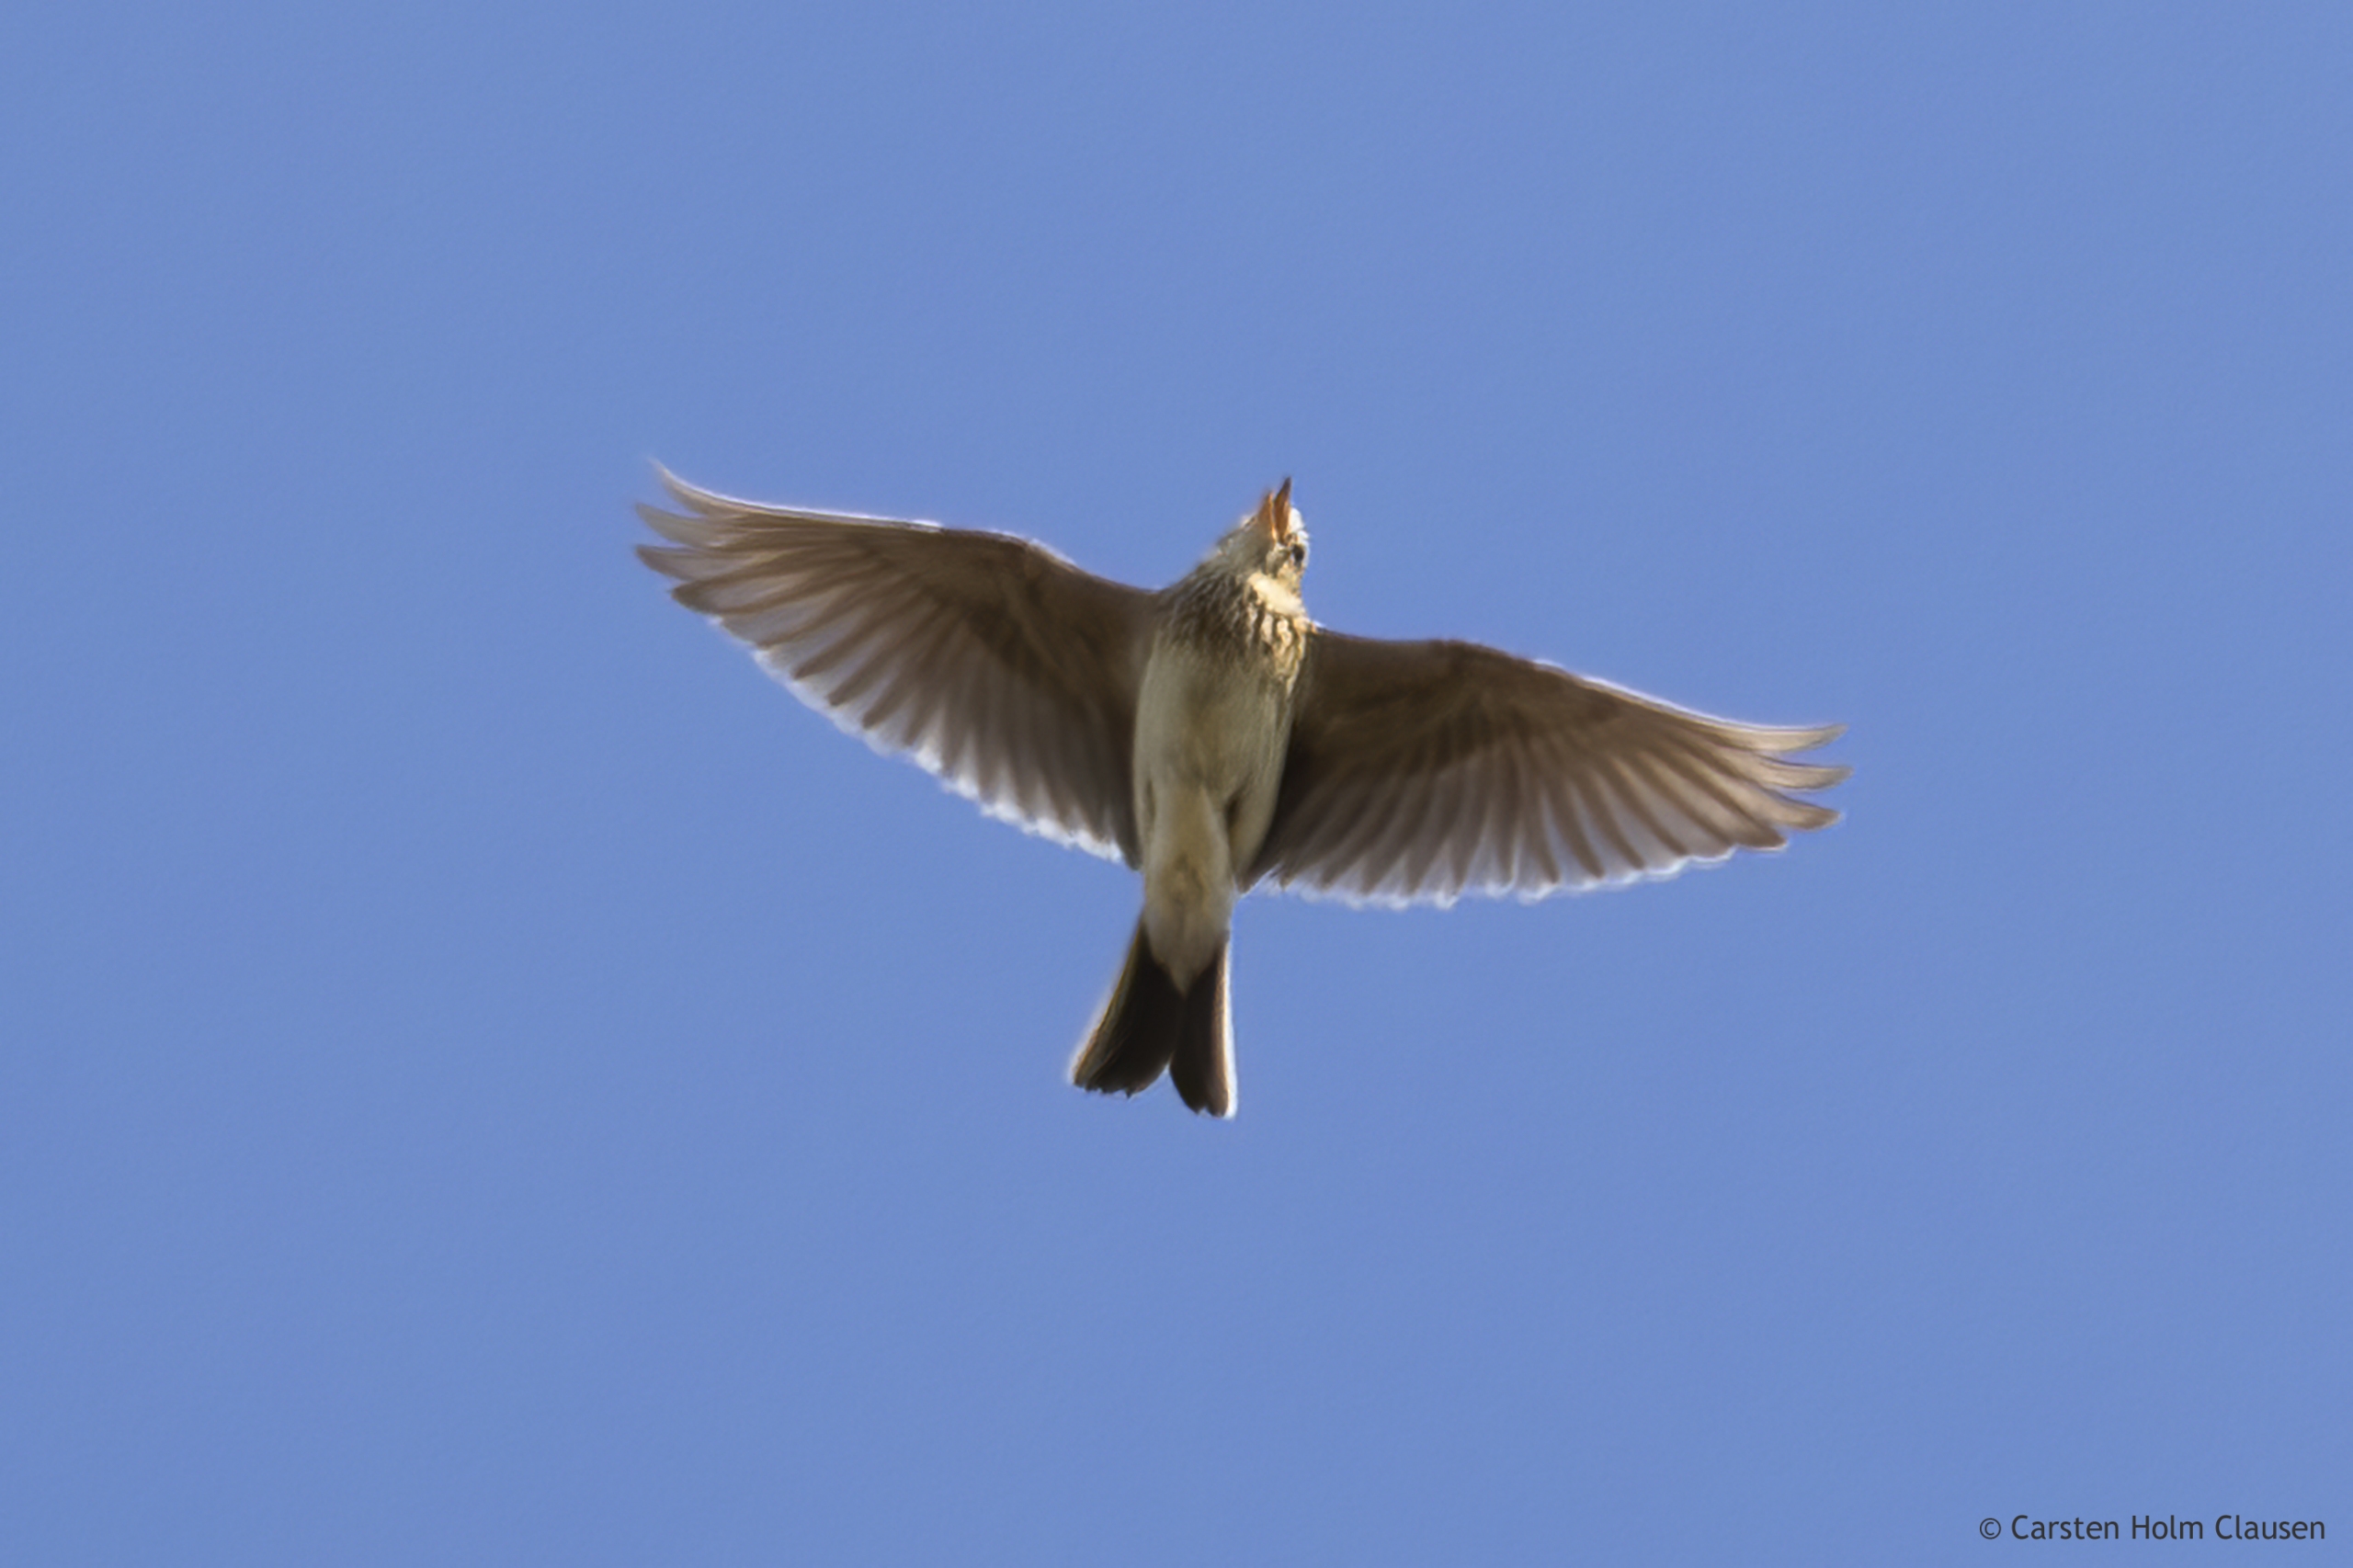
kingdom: Animalia
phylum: Chordata
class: Aves
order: Passeriformes
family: Alaudidae
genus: Alauda
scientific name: Alauda arvensis
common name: Sanglærke
